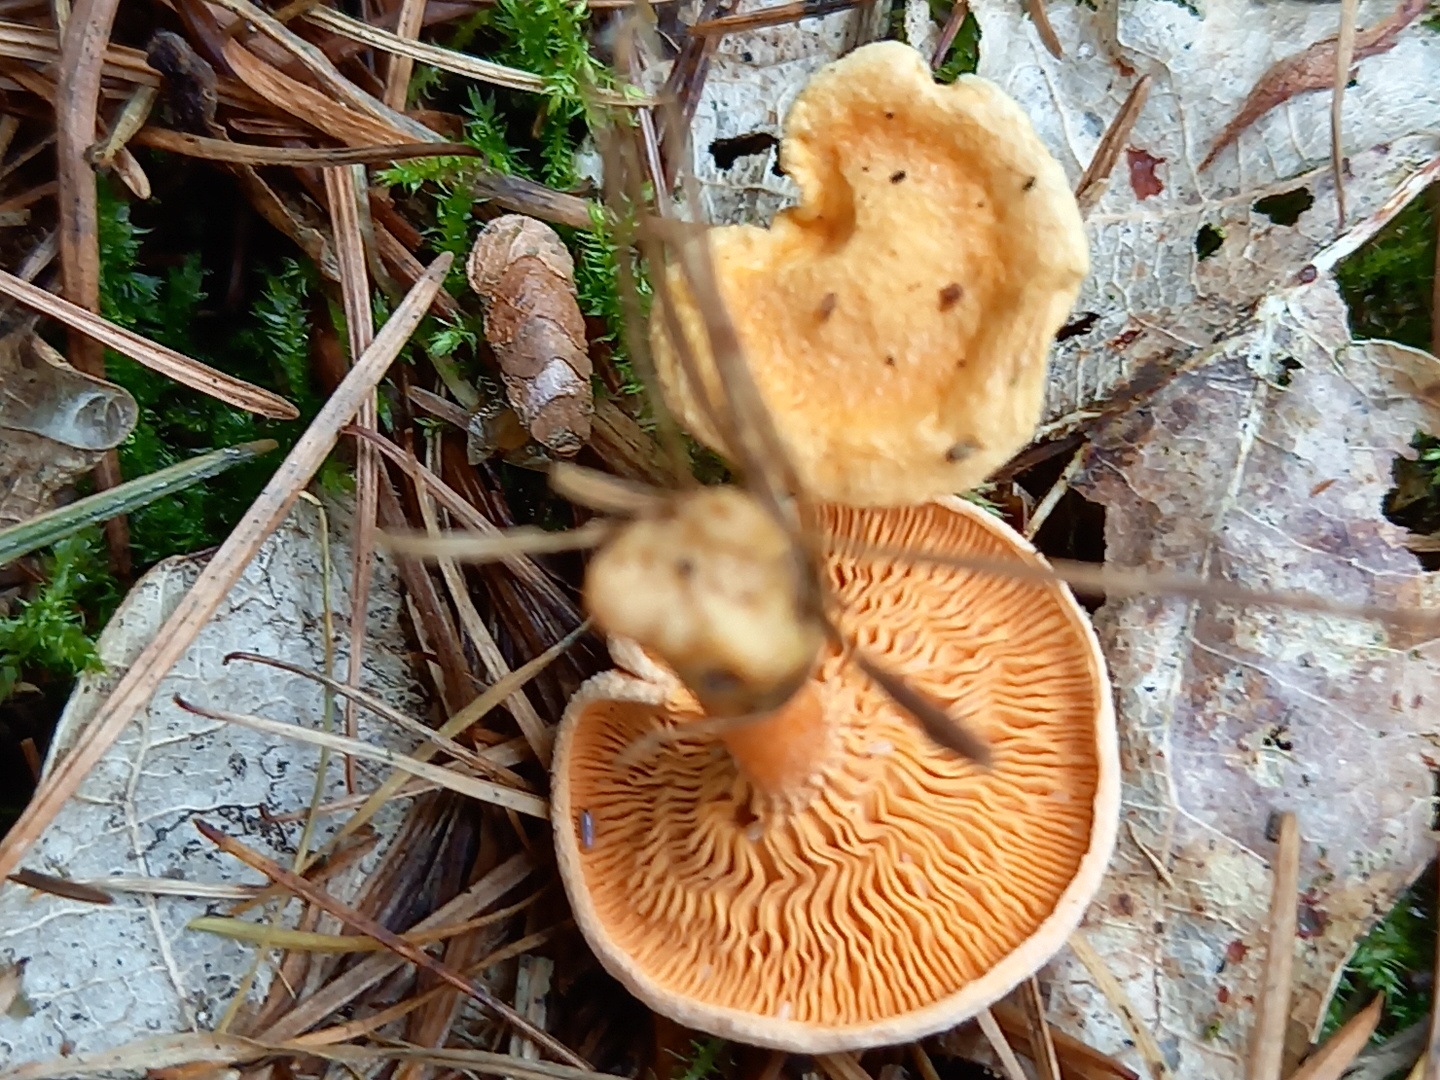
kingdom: Fungi
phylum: Basidiomycota
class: Agaricomycetes
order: Boletales
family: Hygrophoropsidaceae
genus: Hygrophoropsis
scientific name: Hygrophoropsis aurantiaca
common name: almindelig orangekantarel
